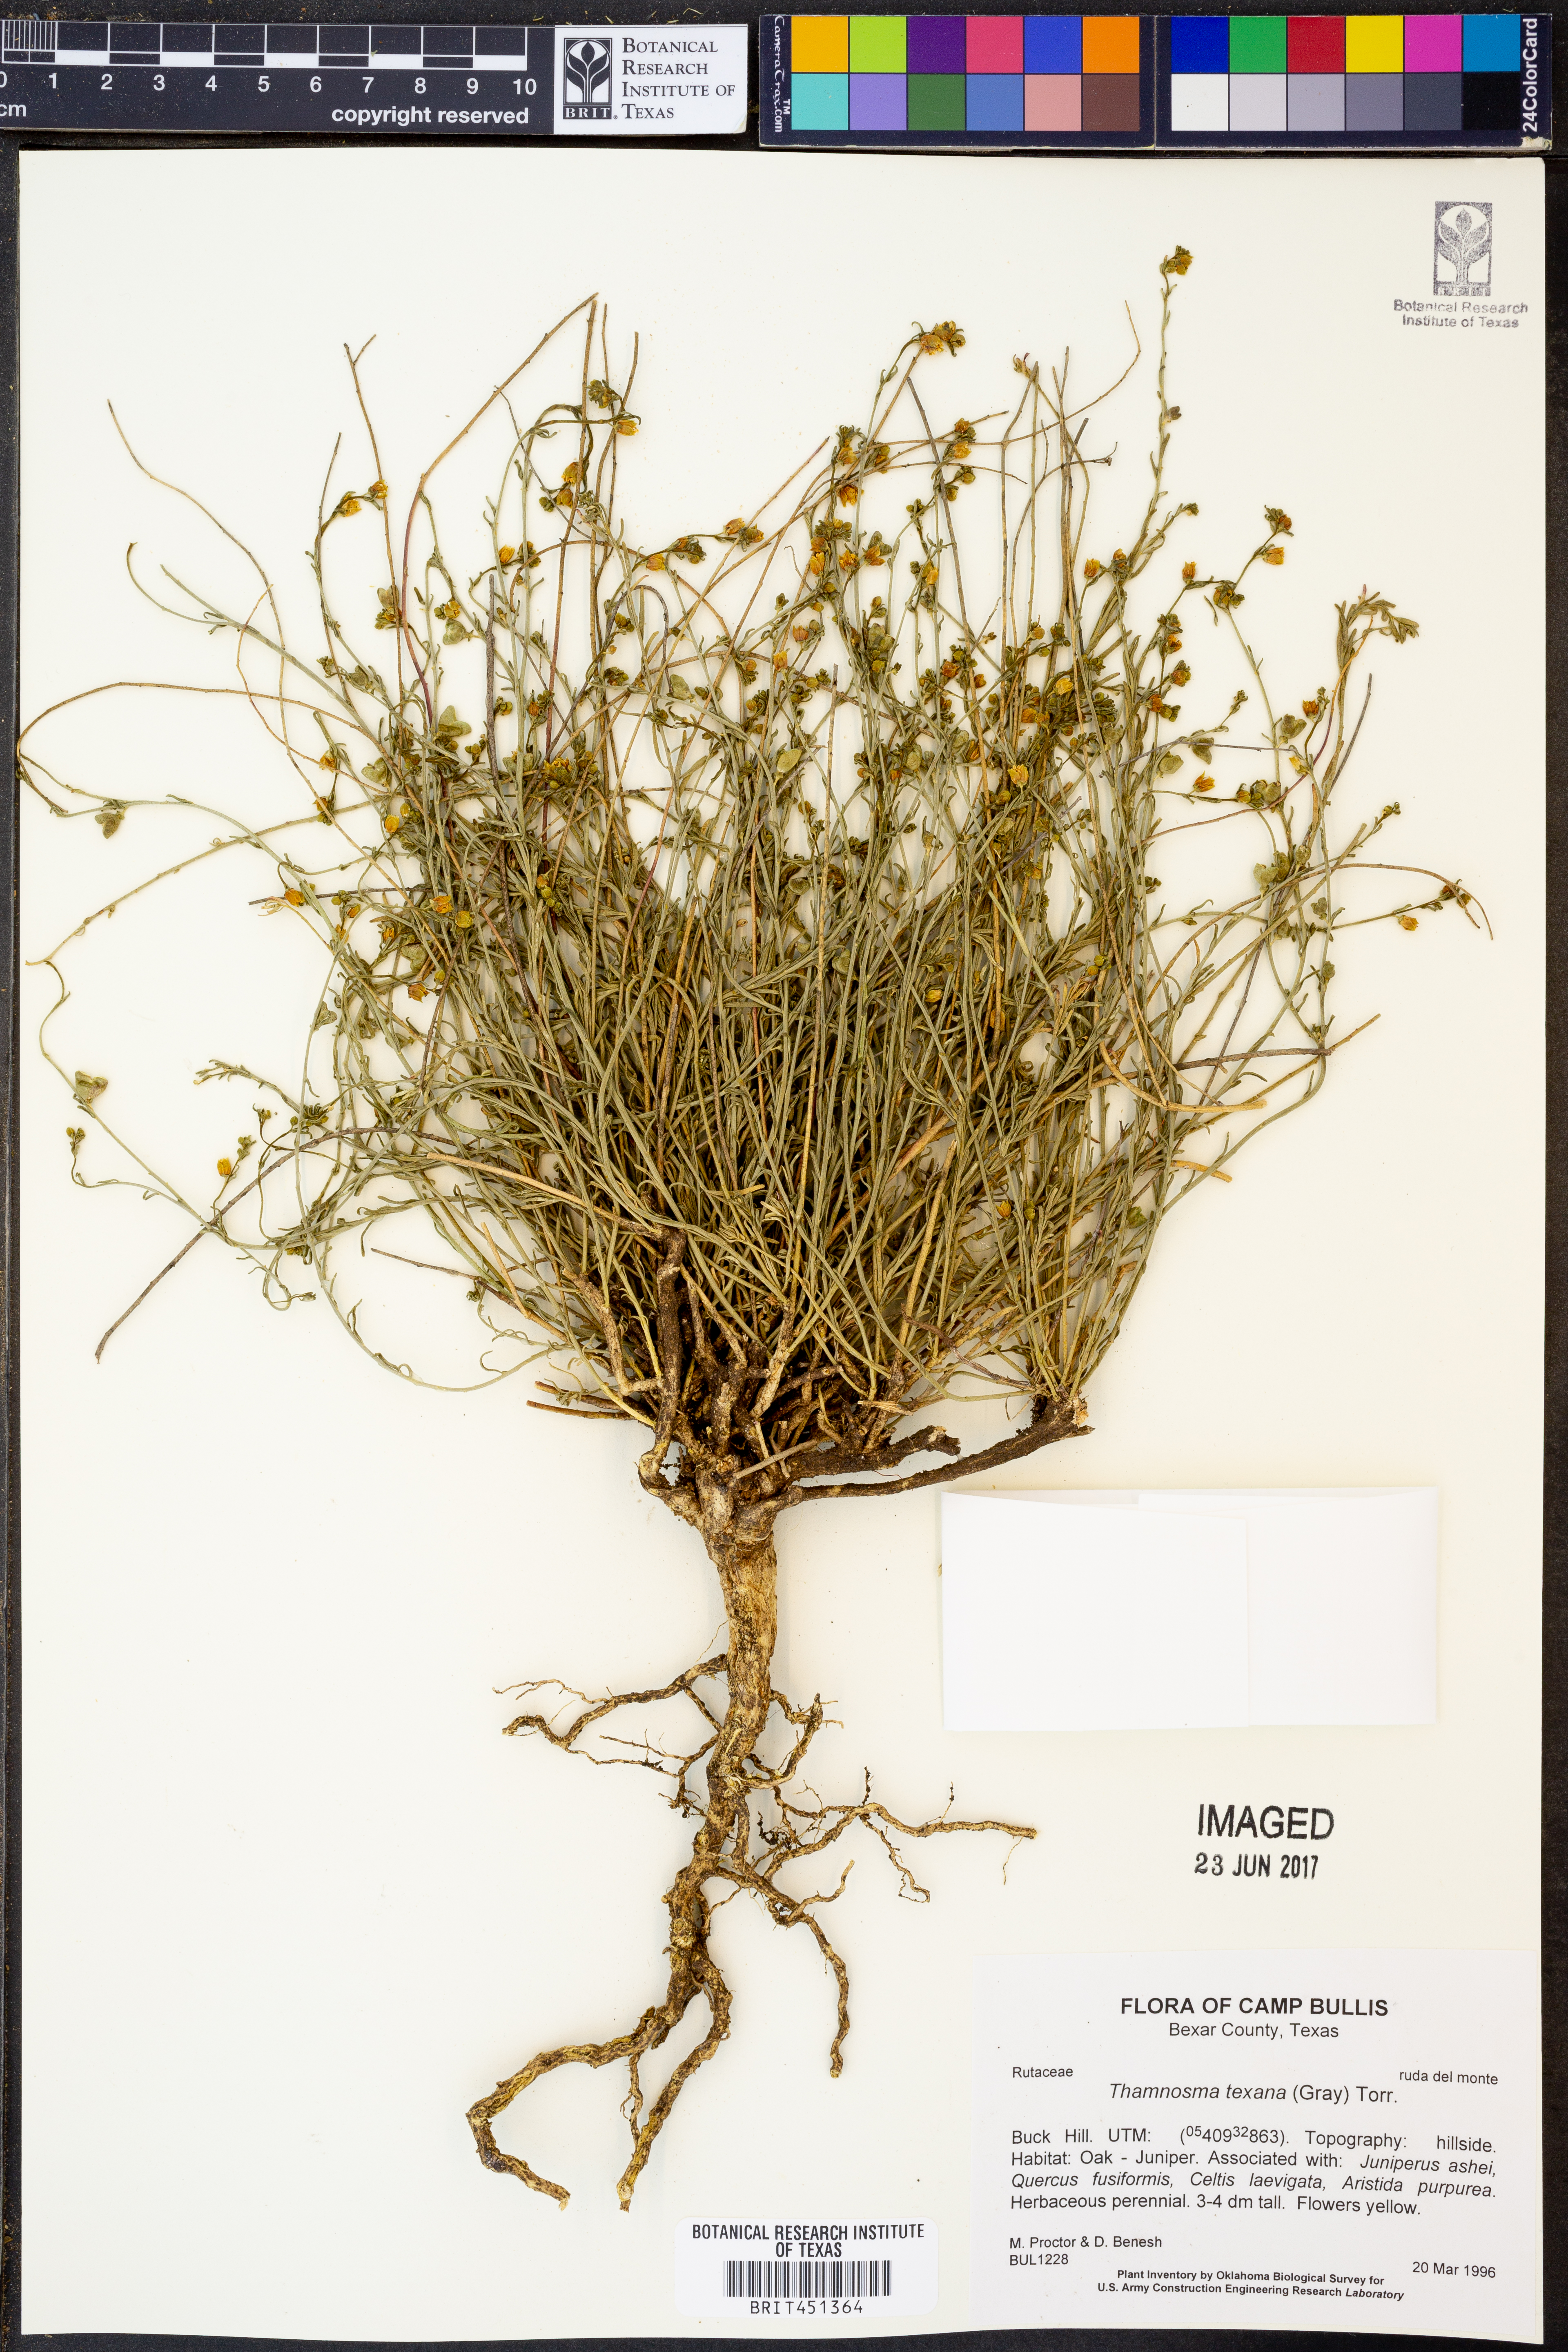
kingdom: Plantae
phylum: Tracheophyta
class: Magnoliopsida
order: Sapindales
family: Rutaceae
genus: Thamnosma
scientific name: Thamnosma texana
